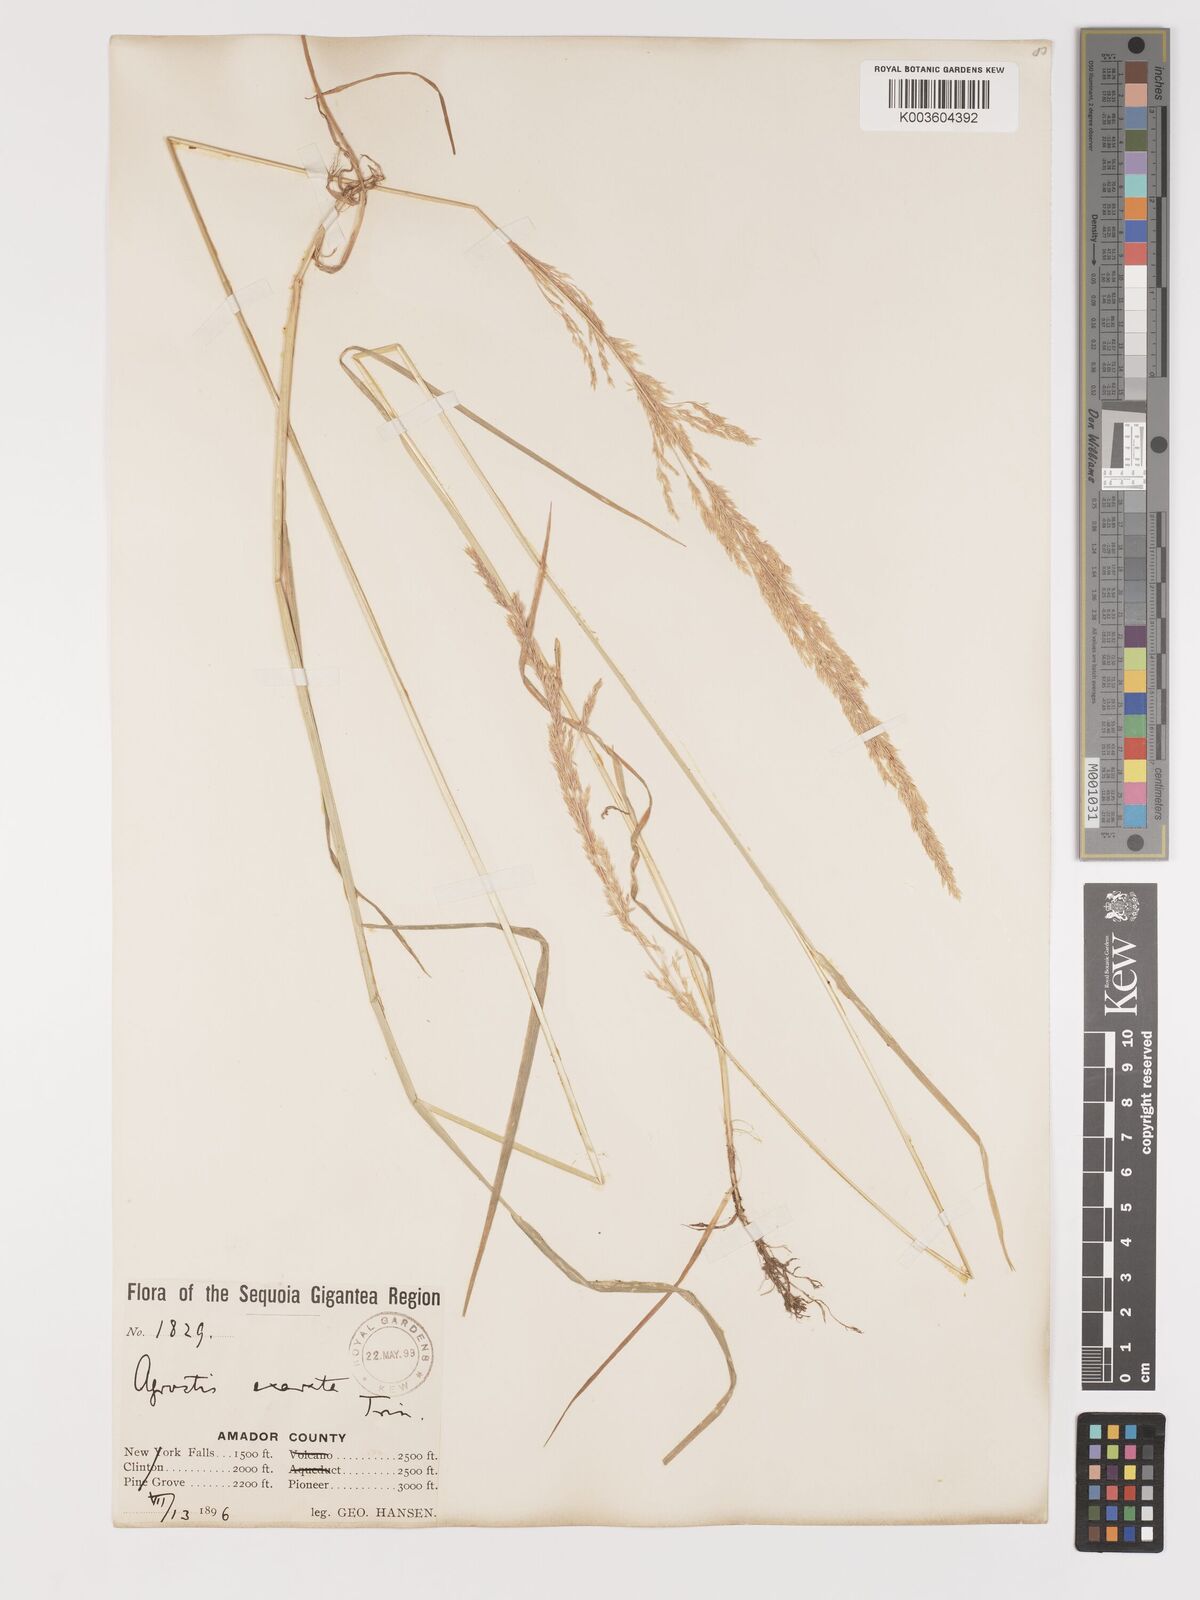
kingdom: Plantae
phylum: Tracheophyta
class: Liliopsida
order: Poales
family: Poaceae
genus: Agrostis
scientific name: Agrostis exarata
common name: Spike bent
